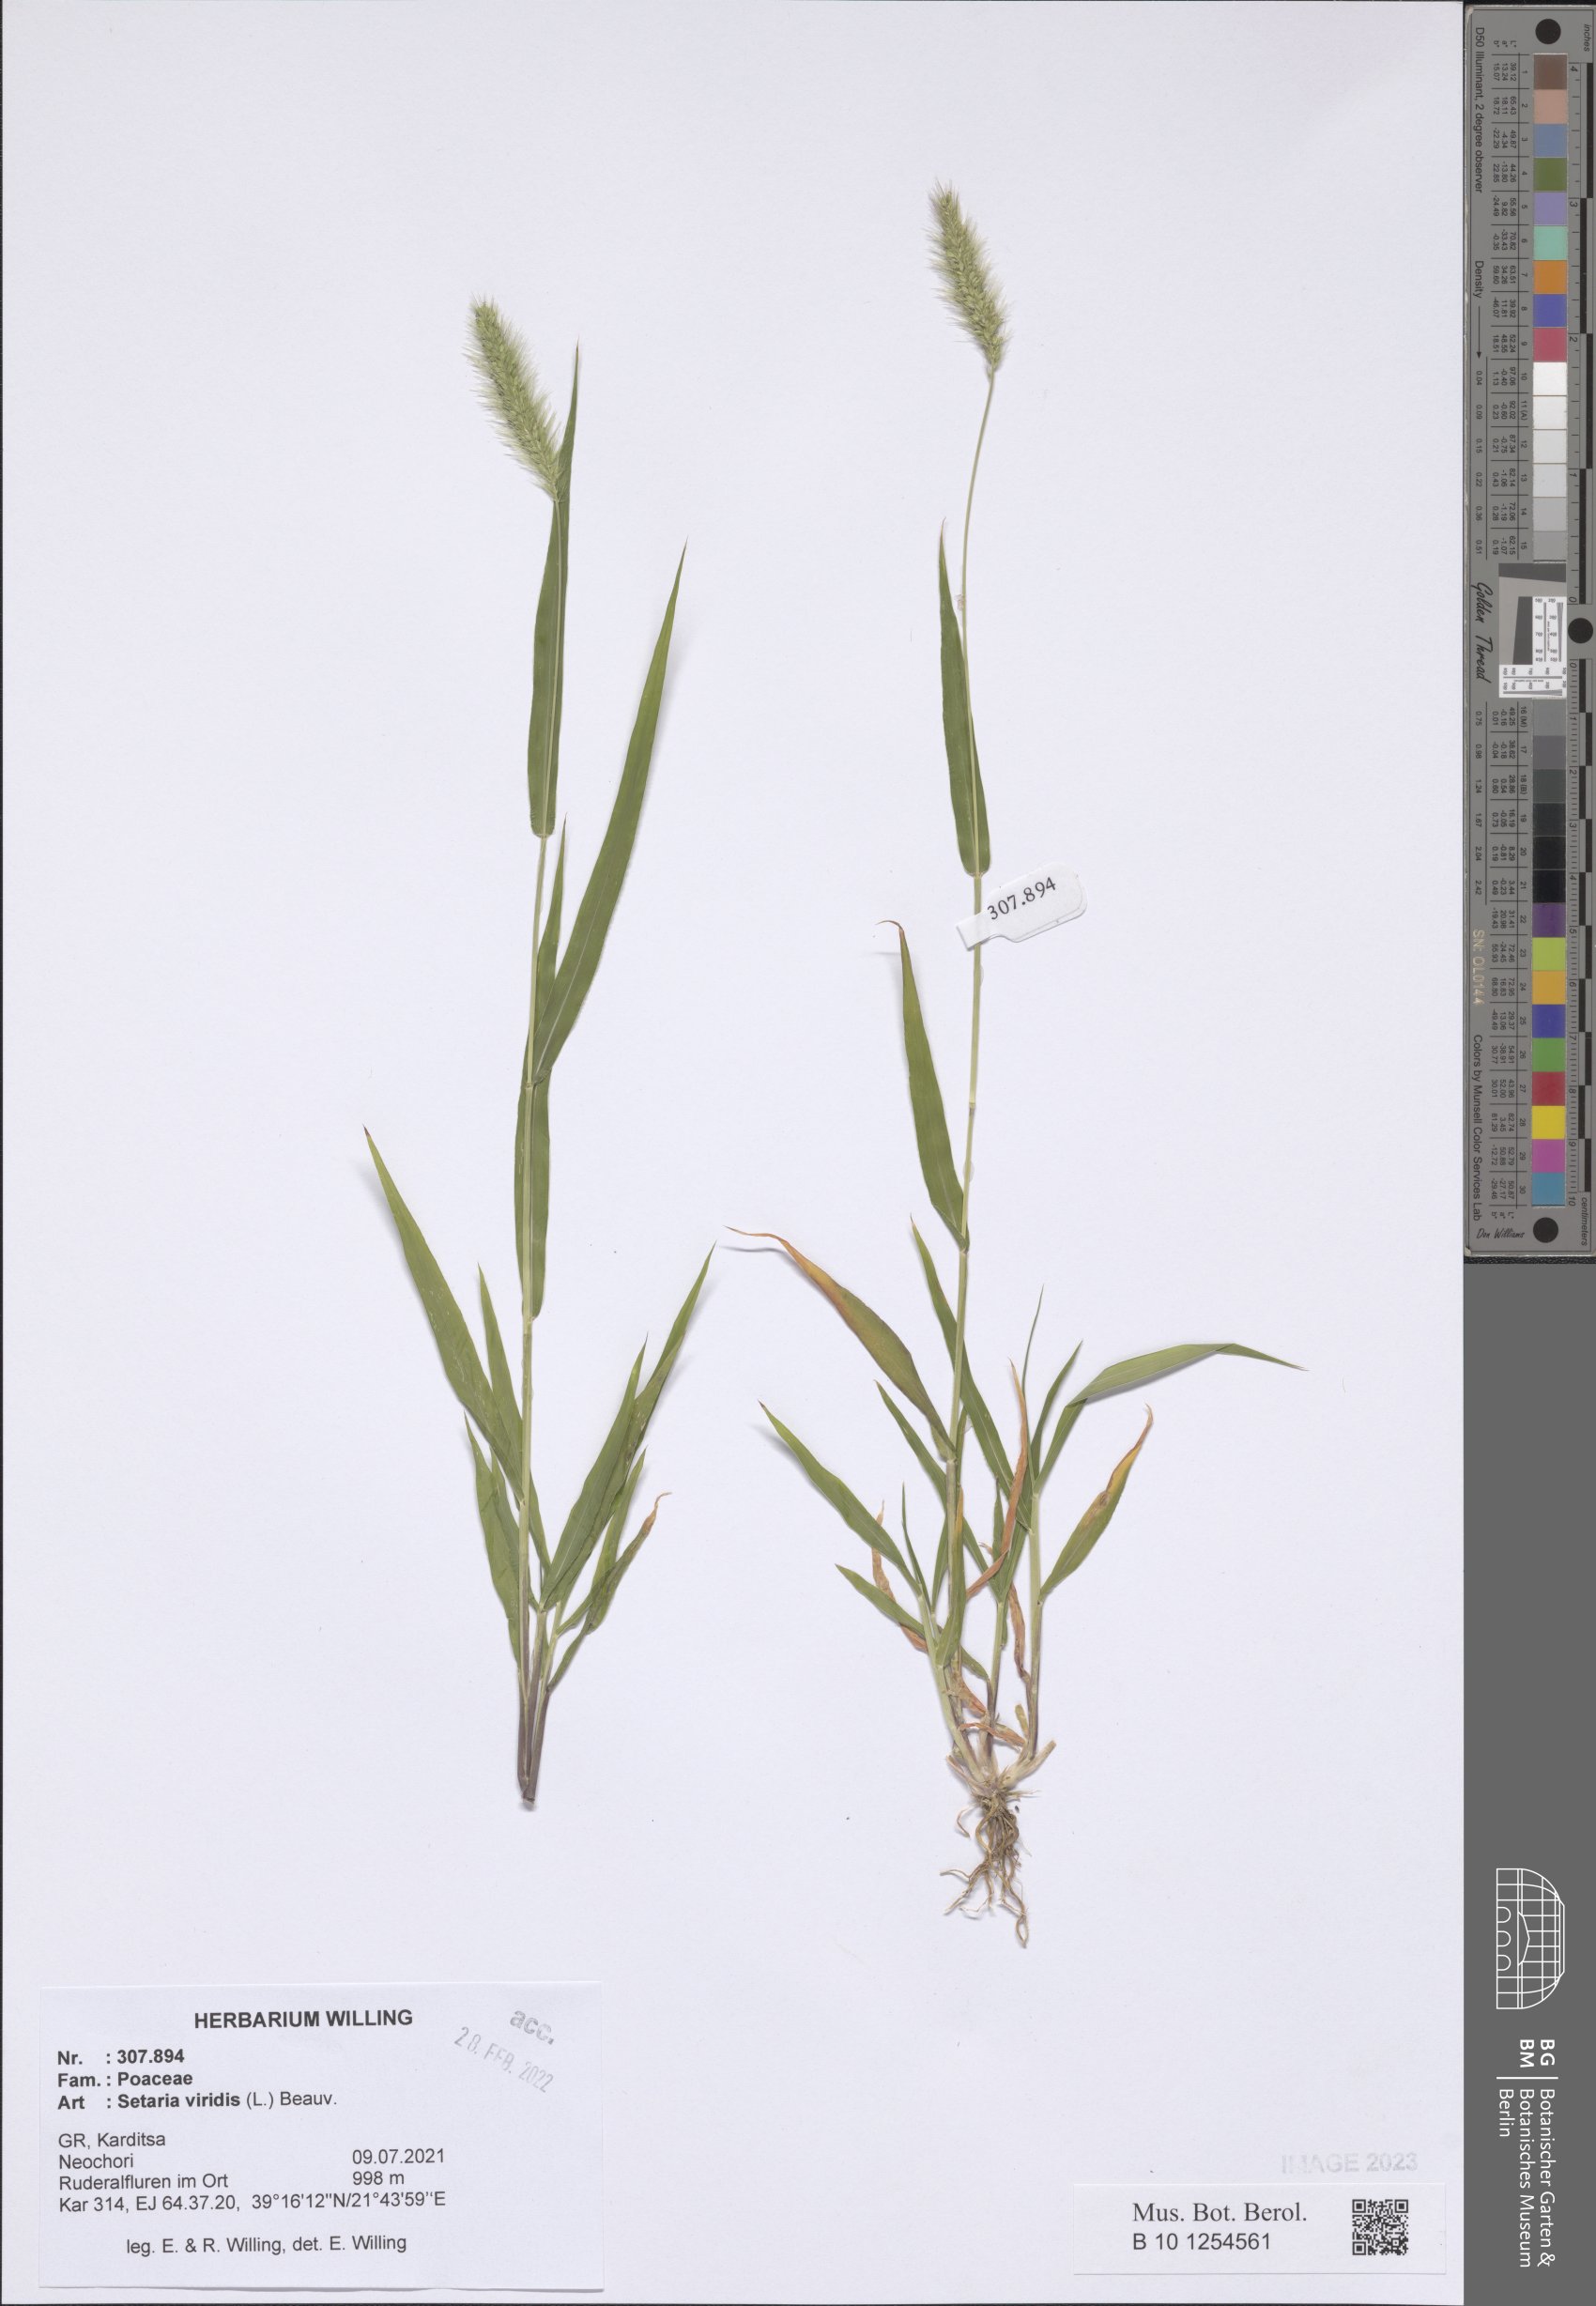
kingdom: Plantae
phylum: Tracheophyta
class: Liliopsida
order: Poales
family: Poaceae
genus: Setaria
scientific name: Setaria viridis
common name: Green bristlegrass
